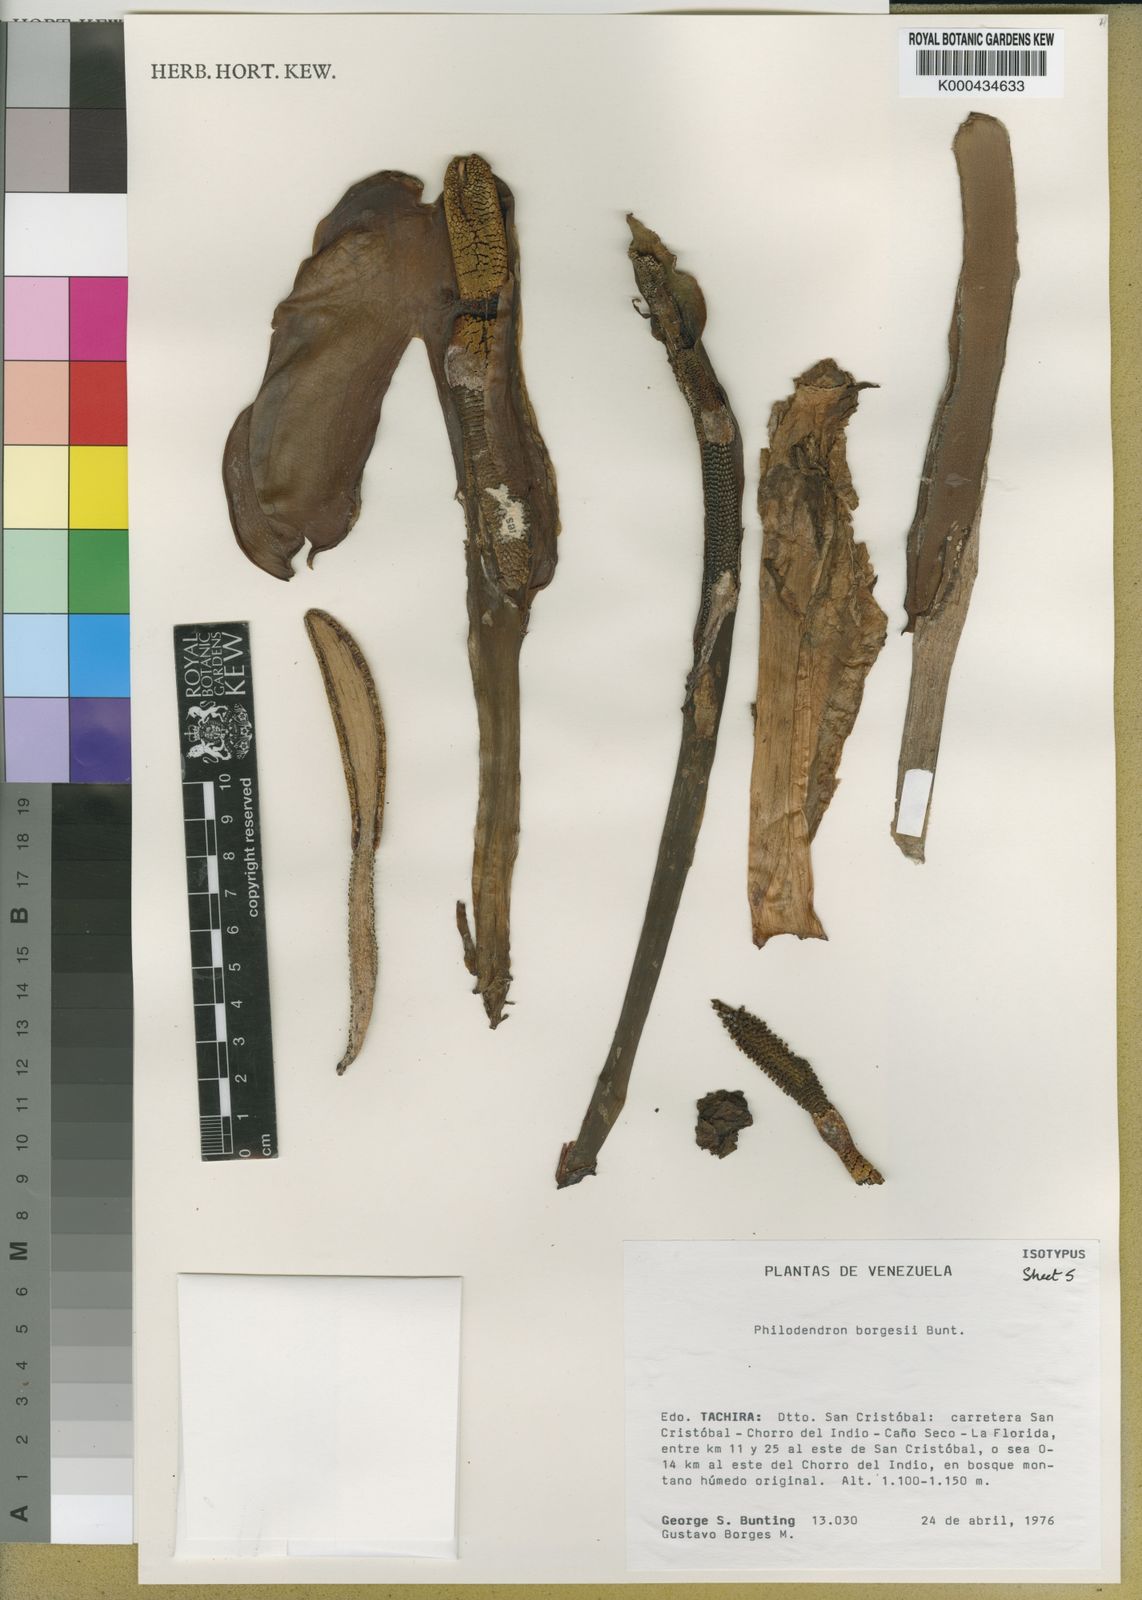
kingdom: Plantae
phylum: Tracheophyta
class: Liliopsida
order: Alismatales
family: Araceae
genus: Philodendron
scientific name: Philodendron borgesii
